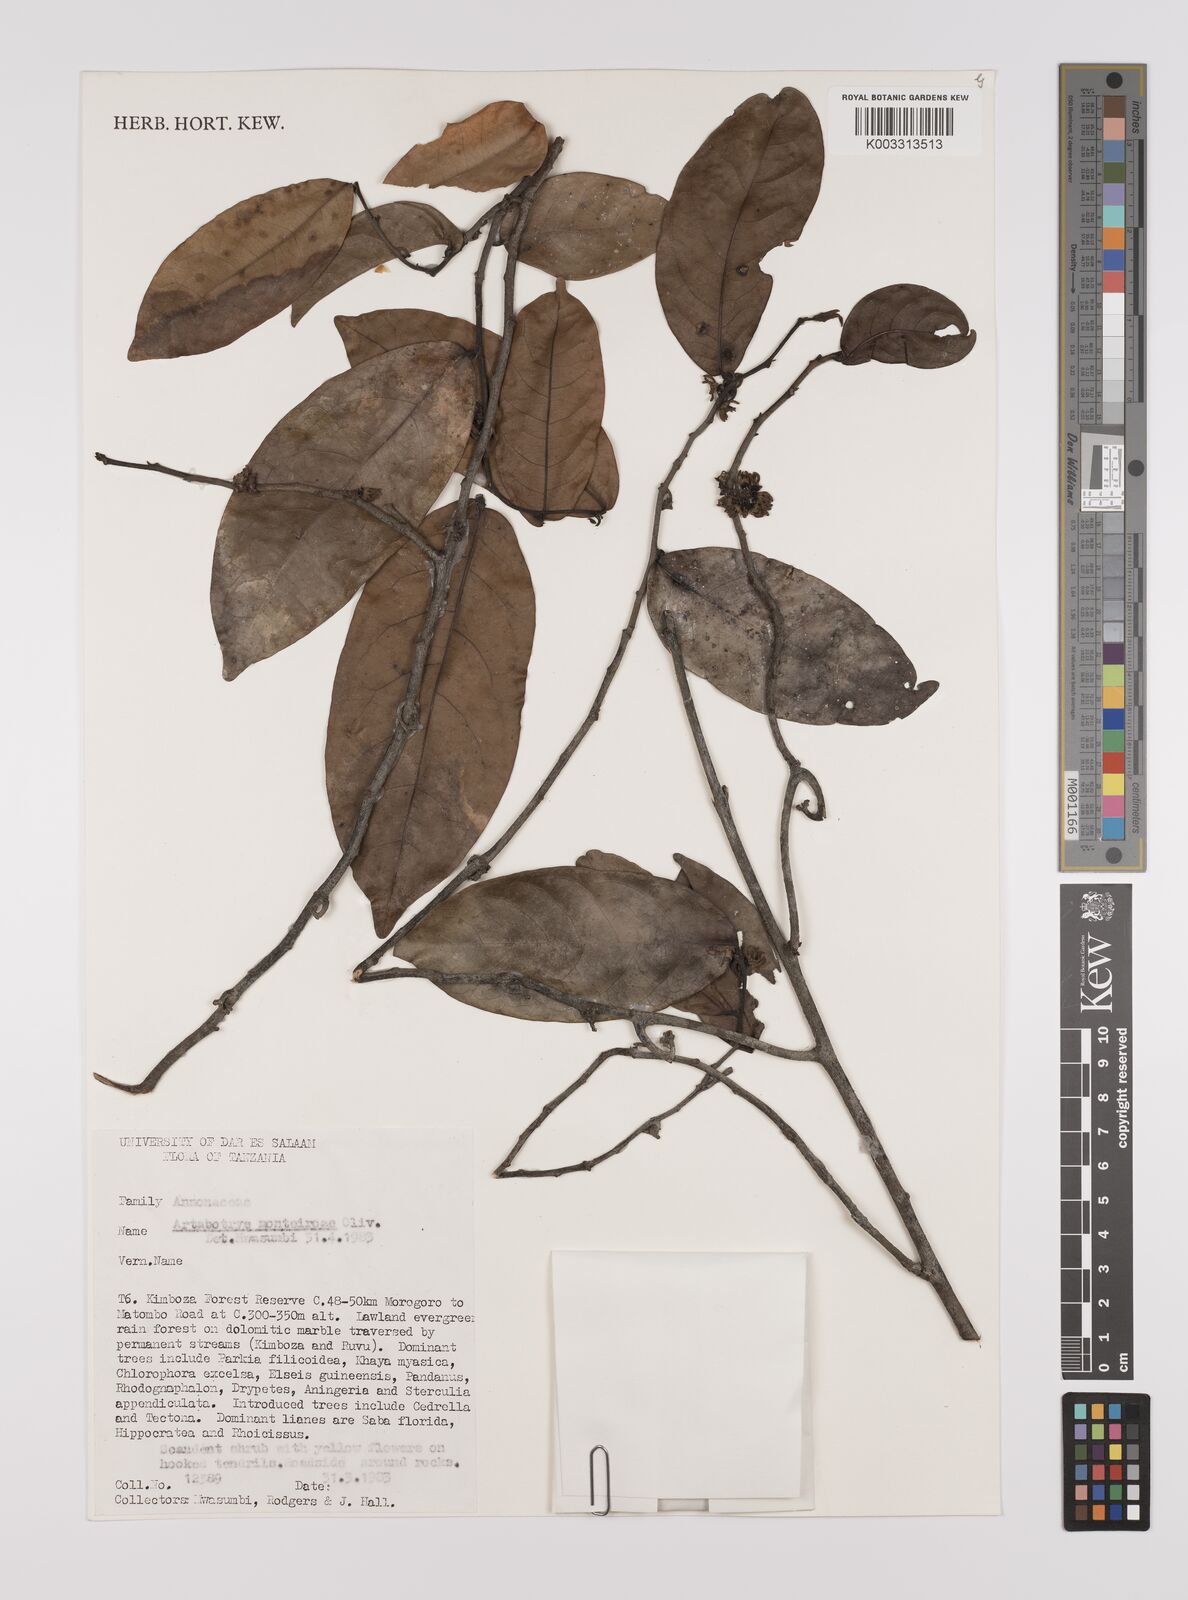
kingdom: Plantae
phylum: Tracheophyta
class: Magnoliopsida
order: Magnoliales
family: Annonaceae
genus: Artabotrys
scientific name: Artabotrys monteiroae
